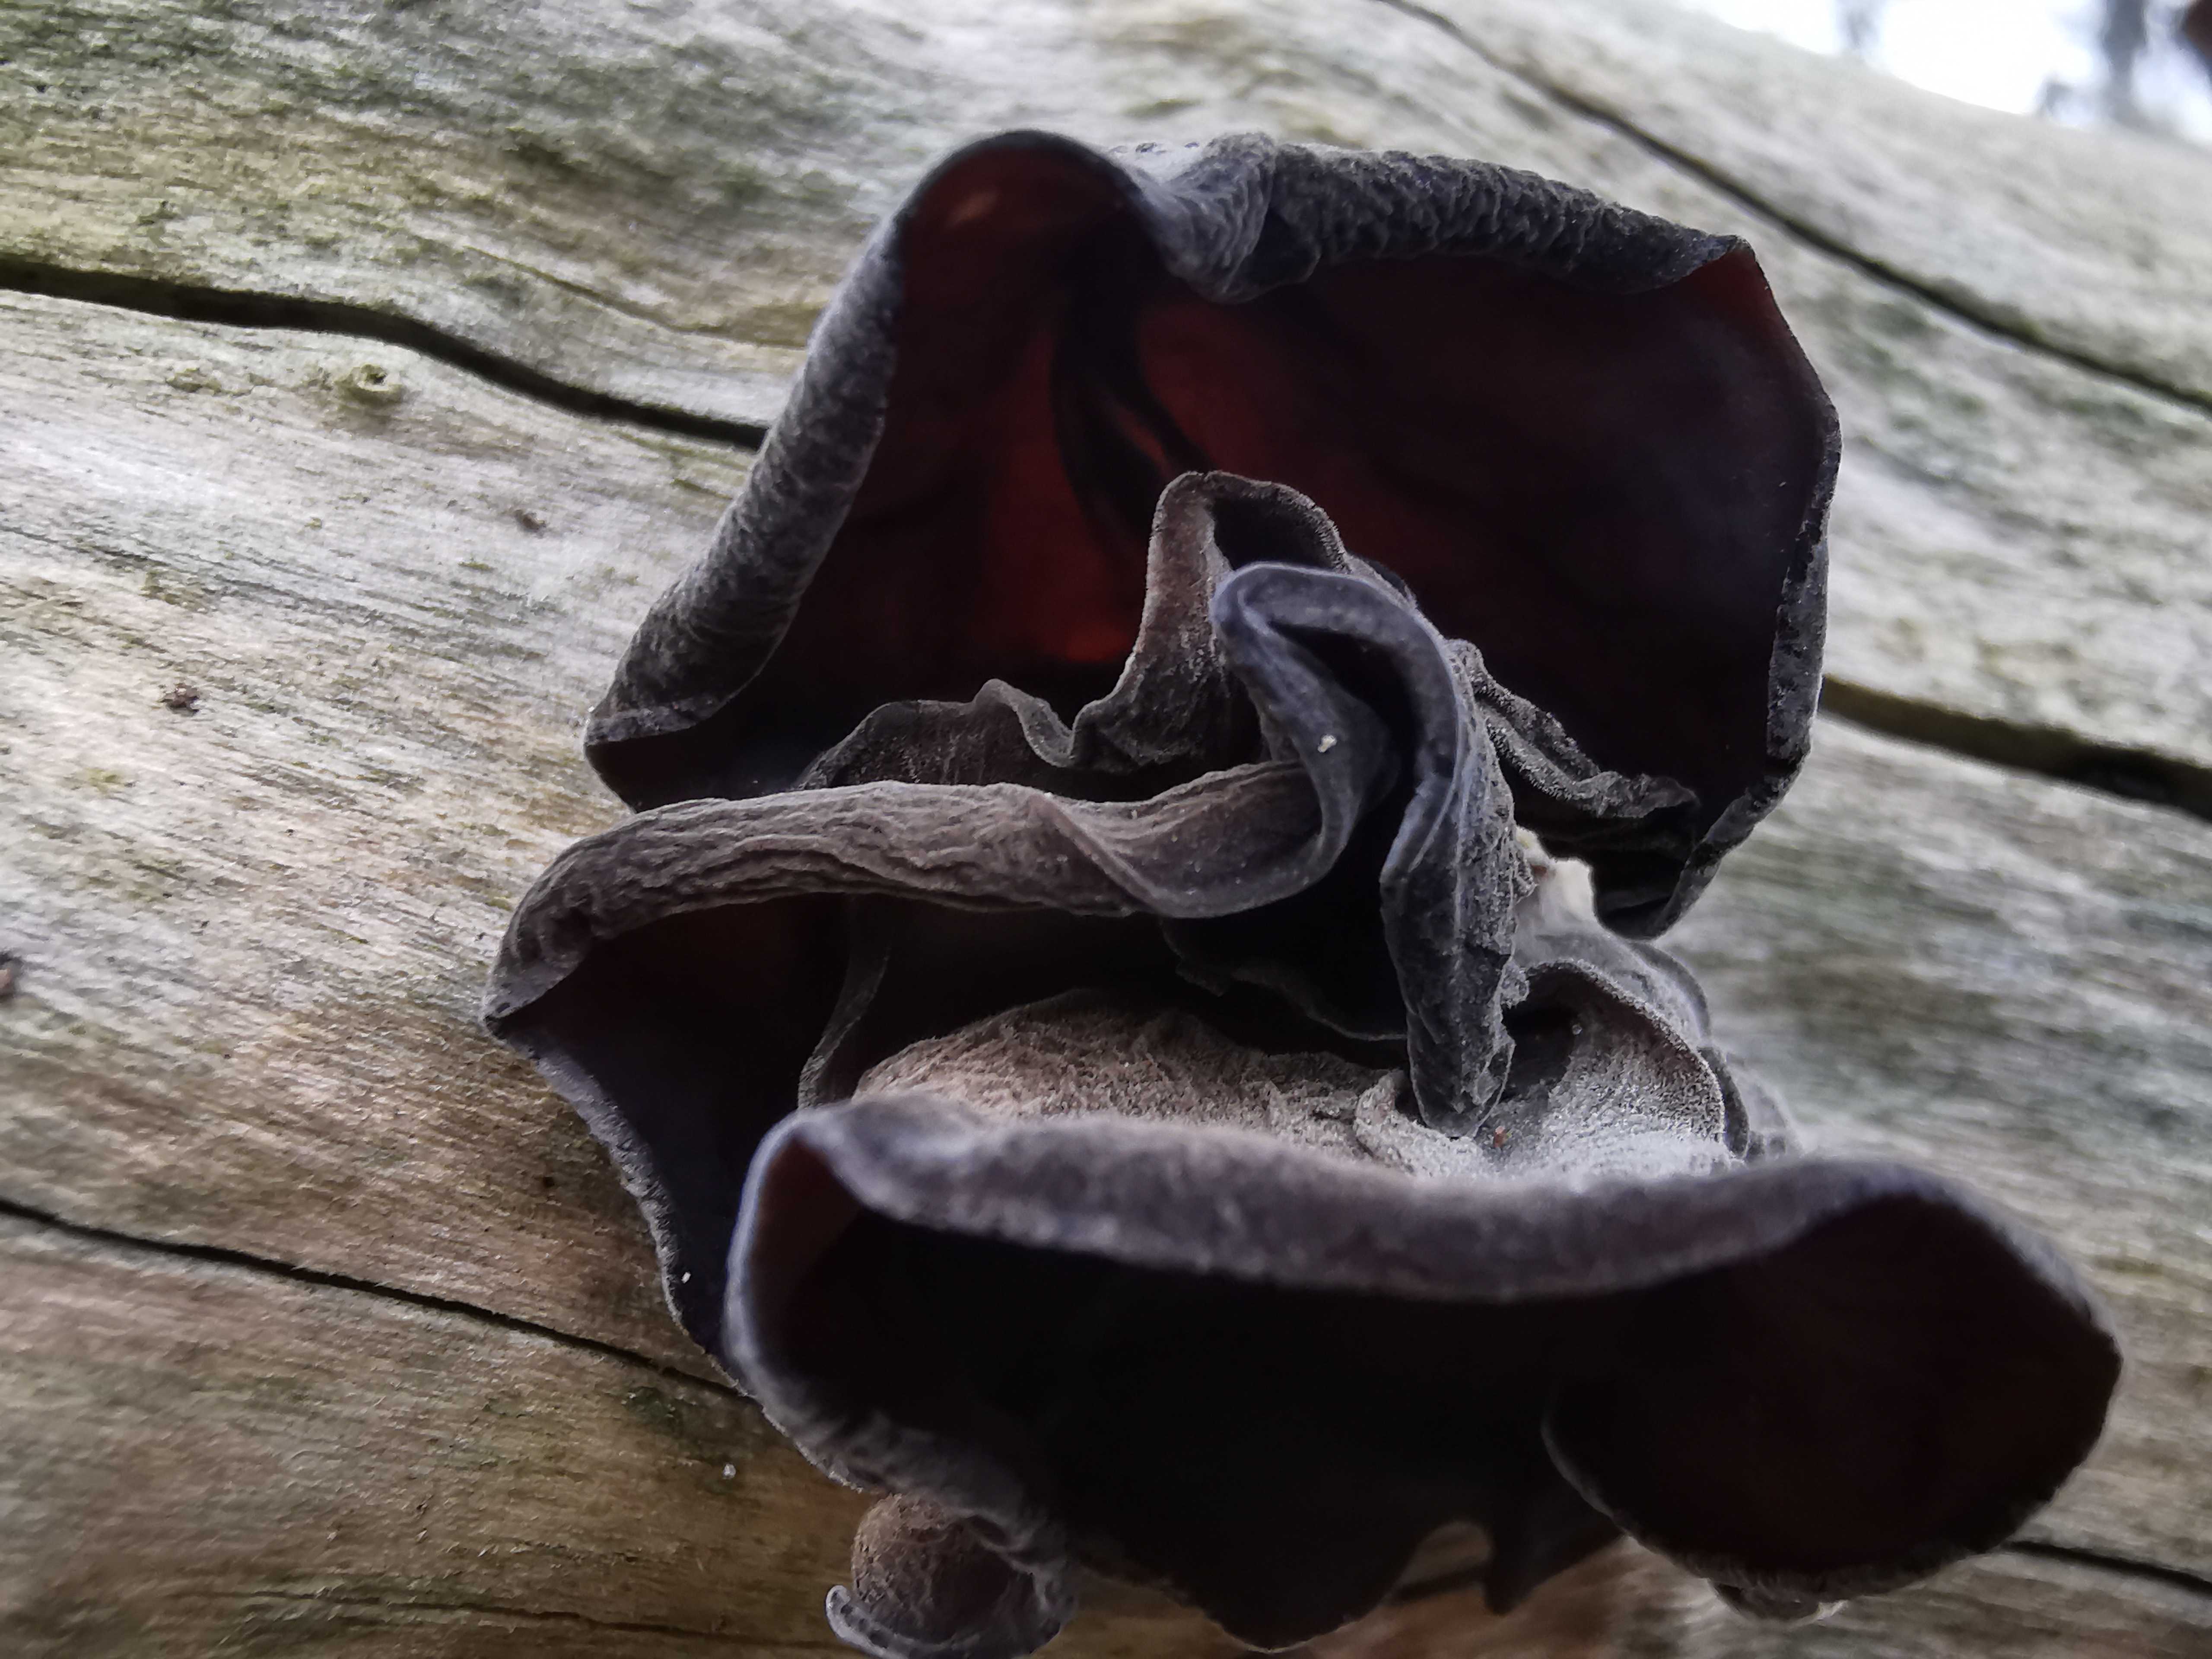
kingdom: Fungi
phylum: Basidiomycota
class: Agaricomycetes
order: Auriculariales
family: Auriculariaceae
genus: Auricularia
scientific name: Auricularia auricula-judae
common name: almindelig judasøre
